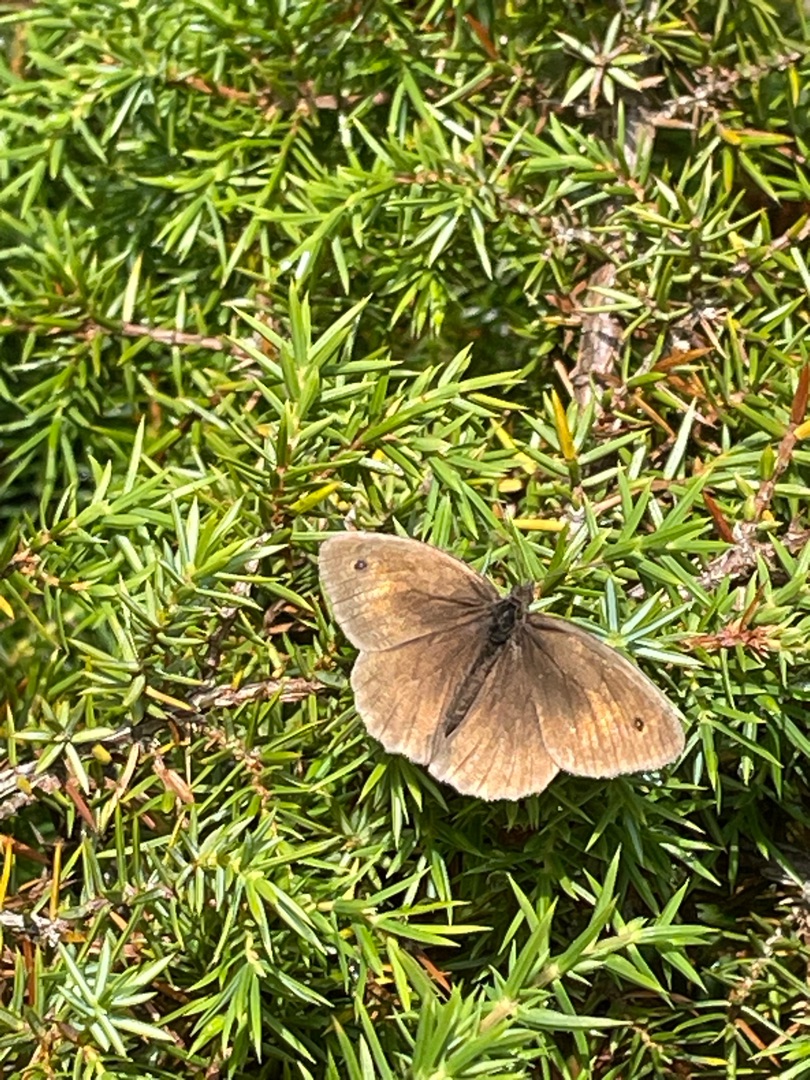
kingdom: Animalia
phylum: Arthropoda
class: Insecta
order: Lepidoptera
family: Nymphalidae
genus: Maniola
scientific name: Maniola jurtina
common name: Græsrandøje
